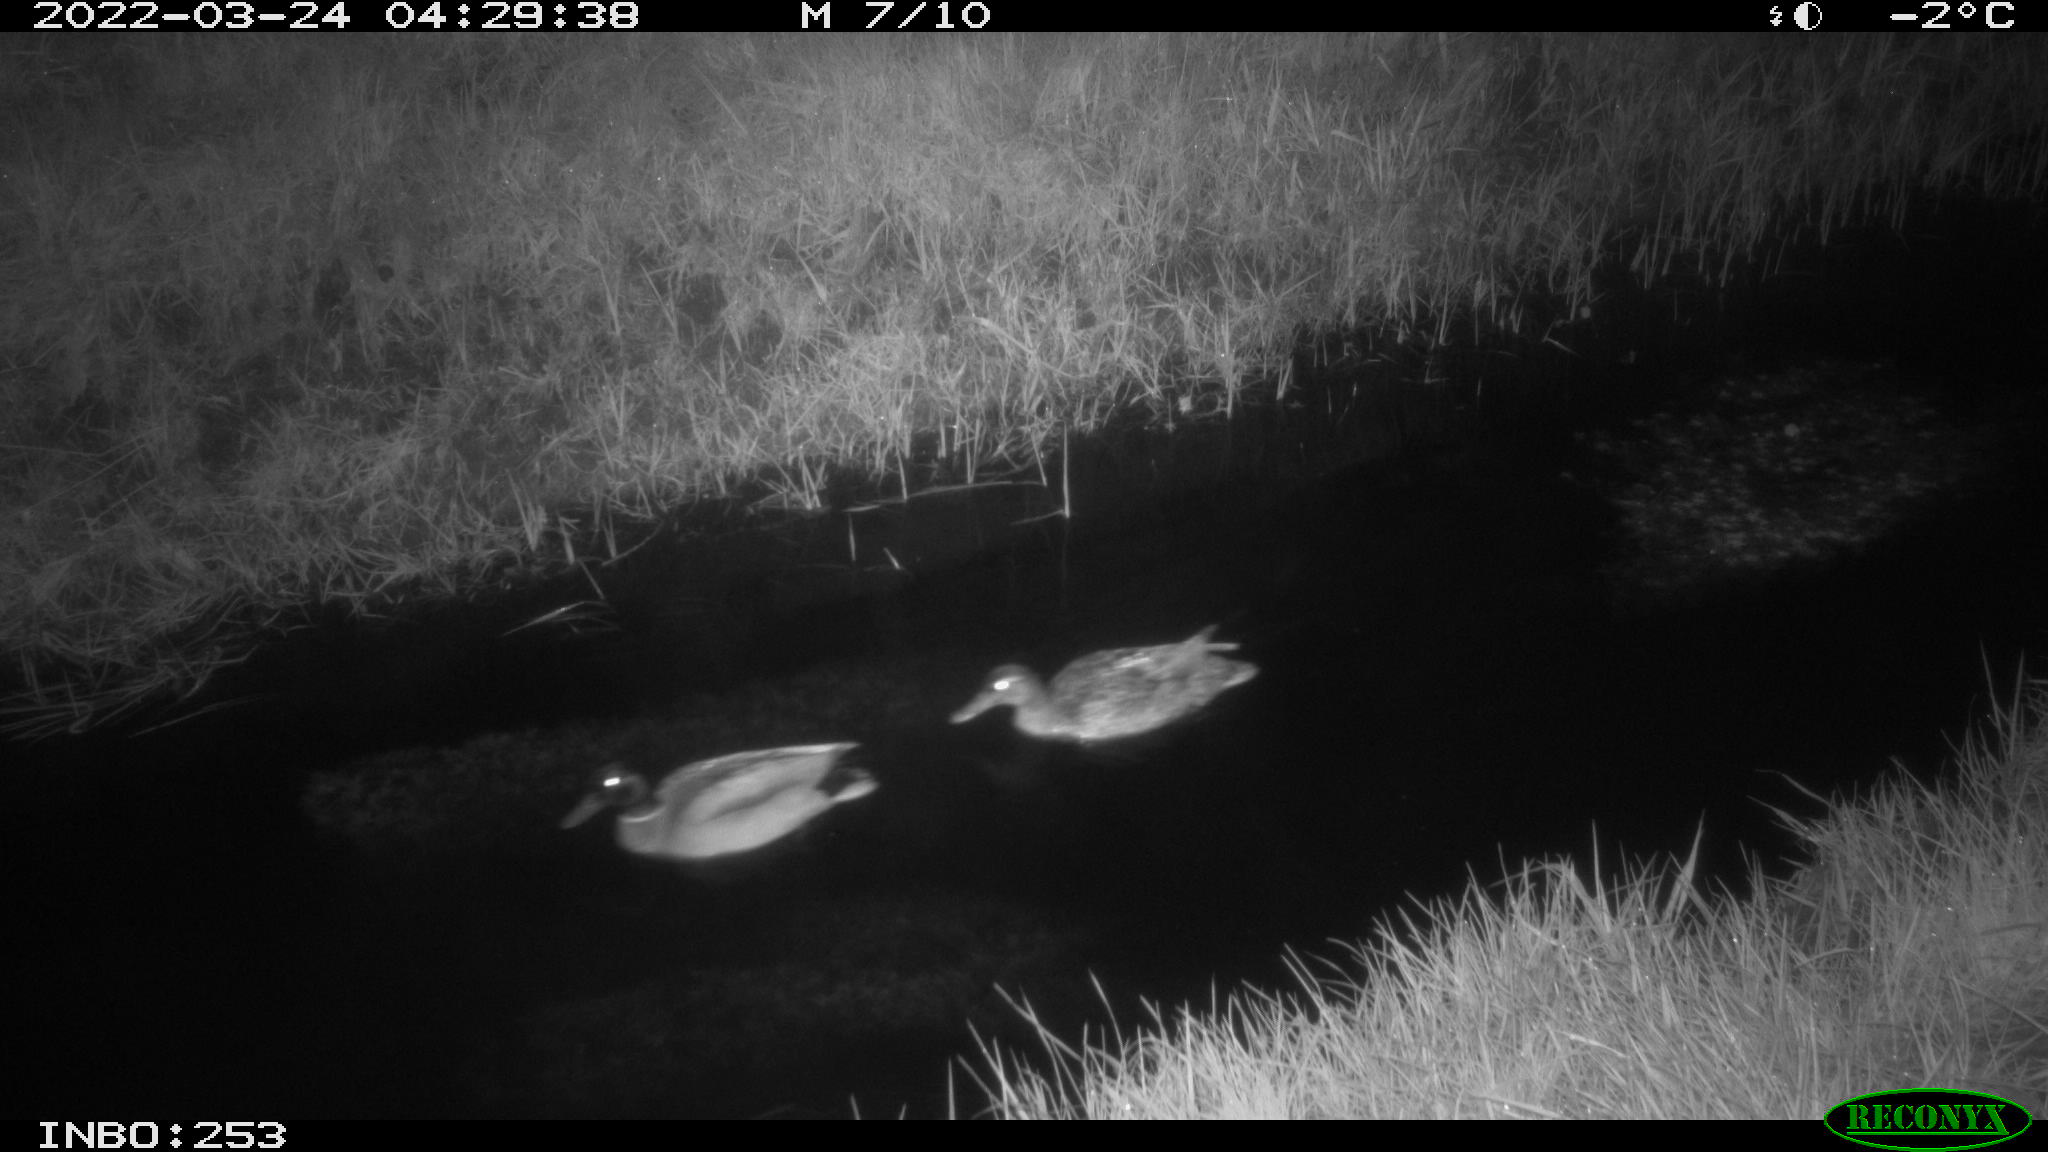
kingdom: Animalia
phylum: Chordata
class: Aves
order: Anseriformes
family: Anatidae
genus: Anas
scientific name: Anas platyrhynchos
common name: Mallard
